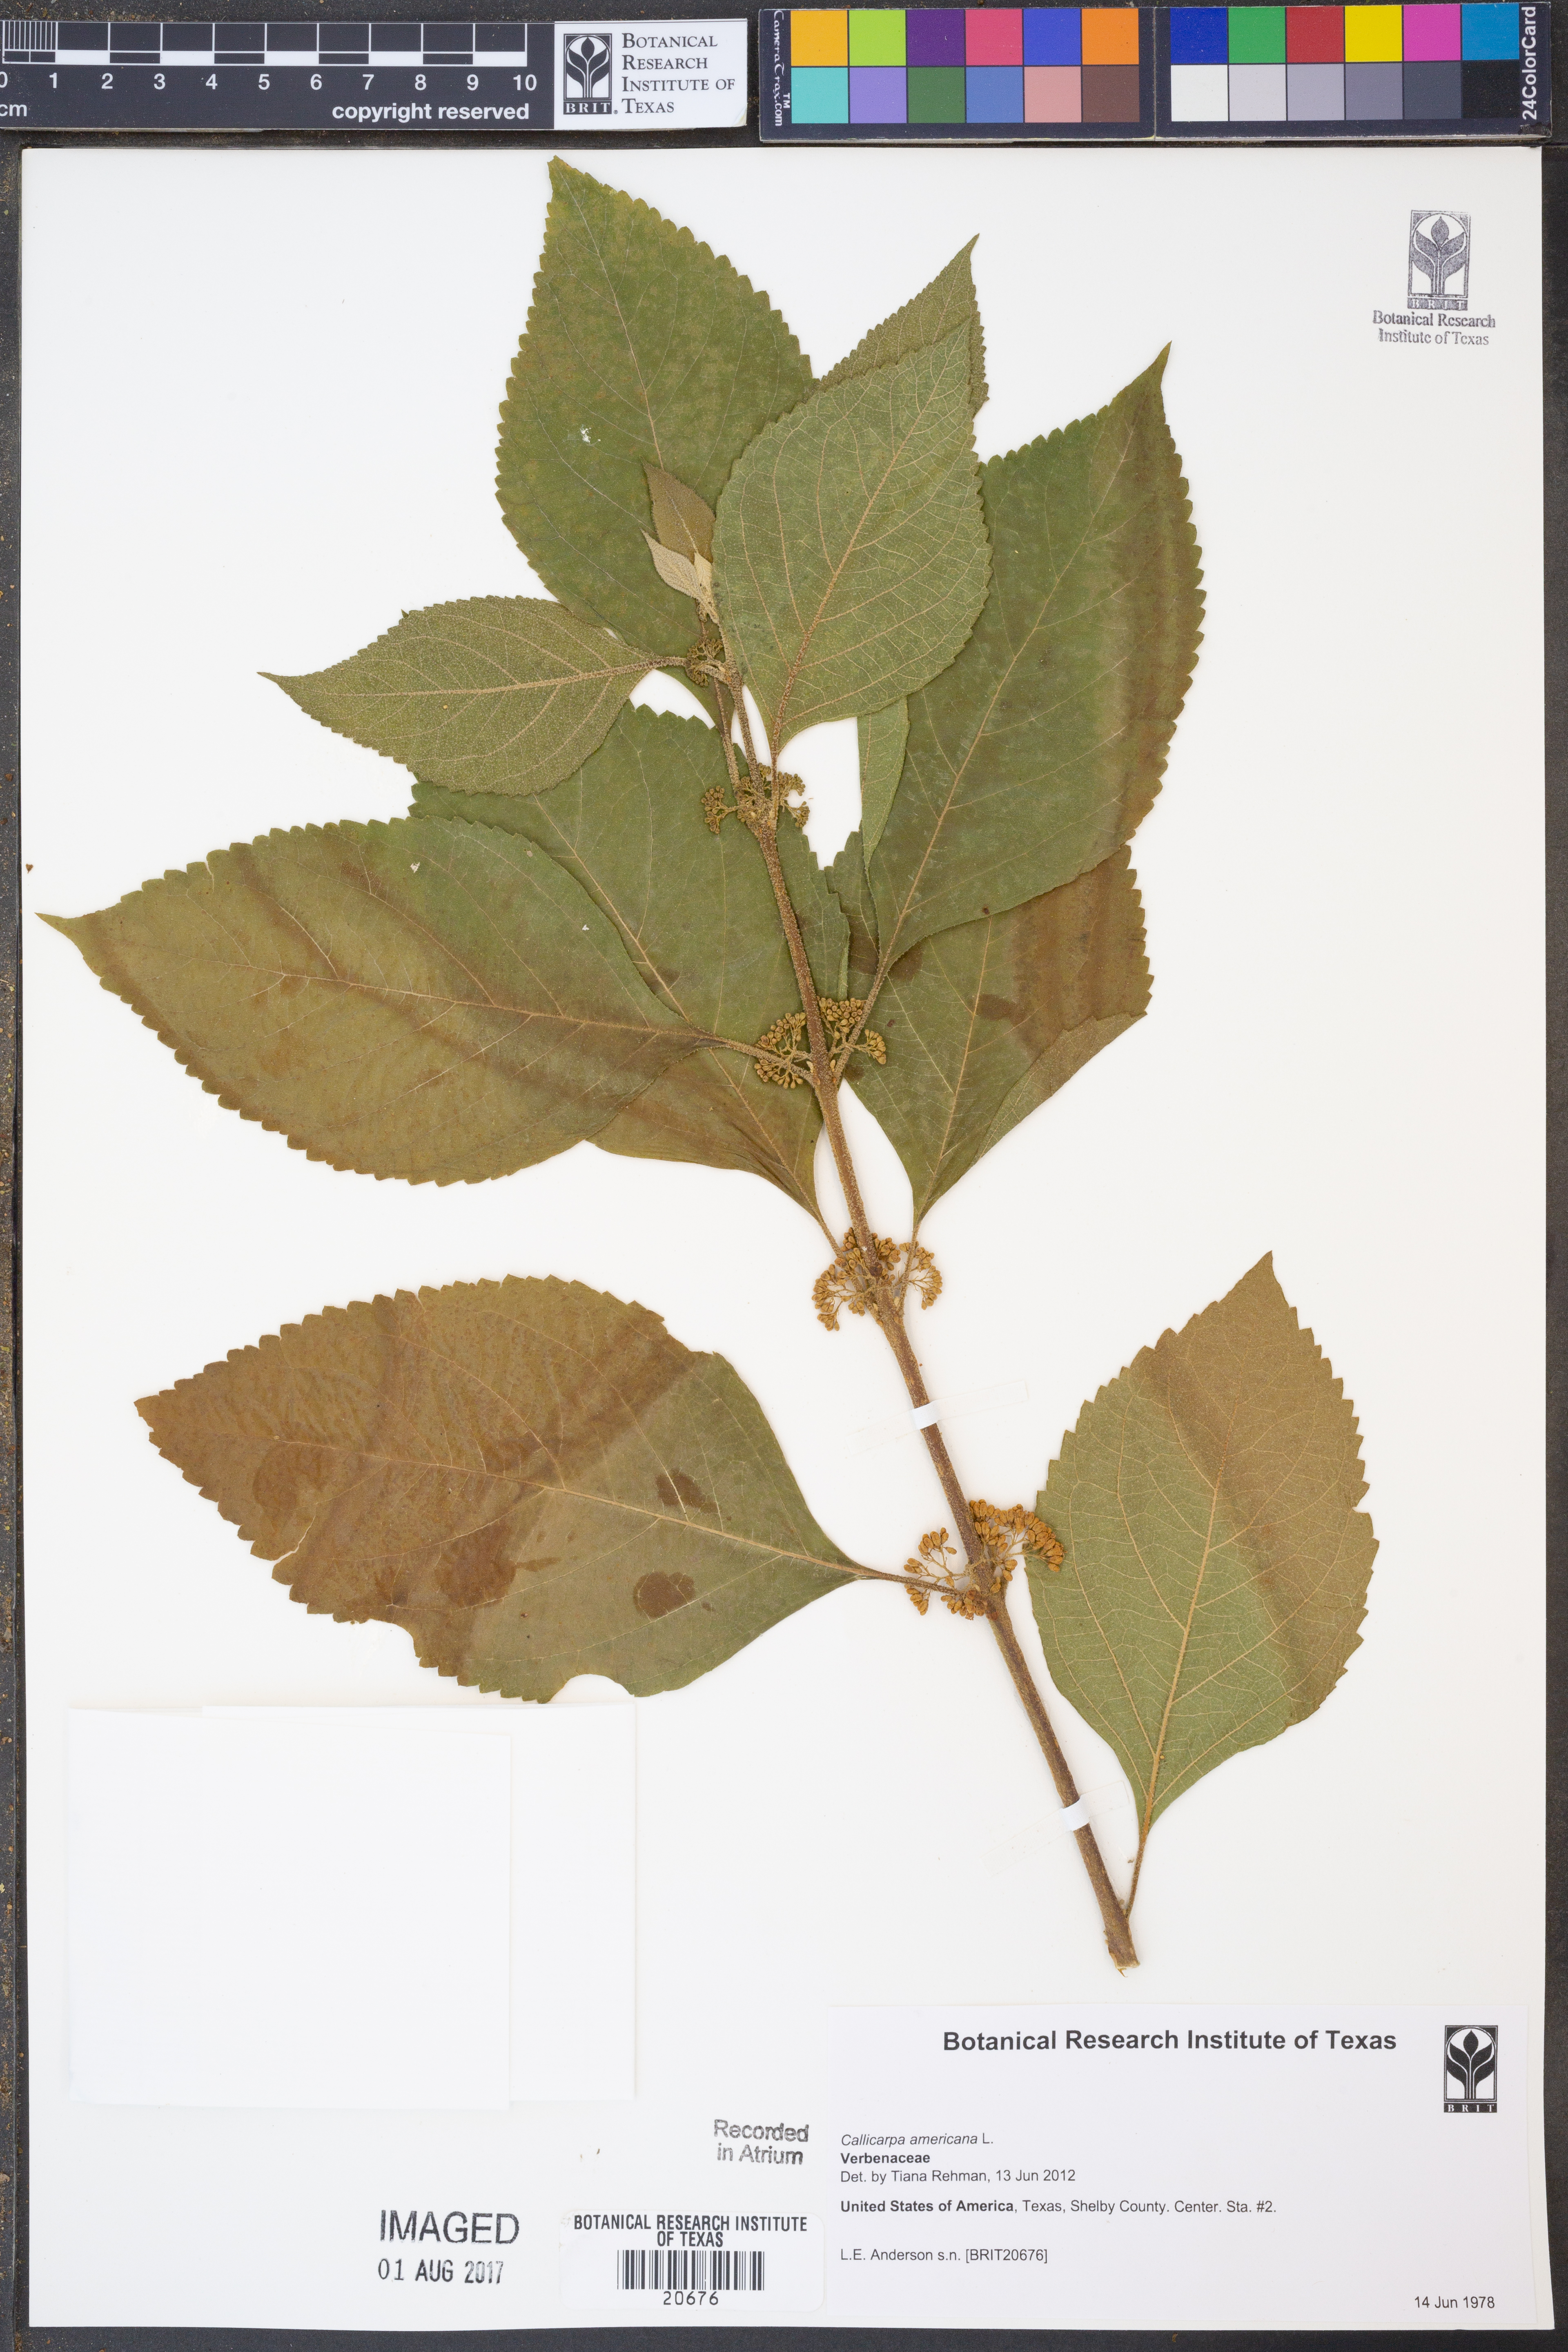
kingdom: Plantae
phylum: Tracheophyta
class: Magnoliopsida
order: Lamiales
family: Lamiaceae
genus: Callicarpa
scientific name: Callicarpa americana
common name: American beautyberry
